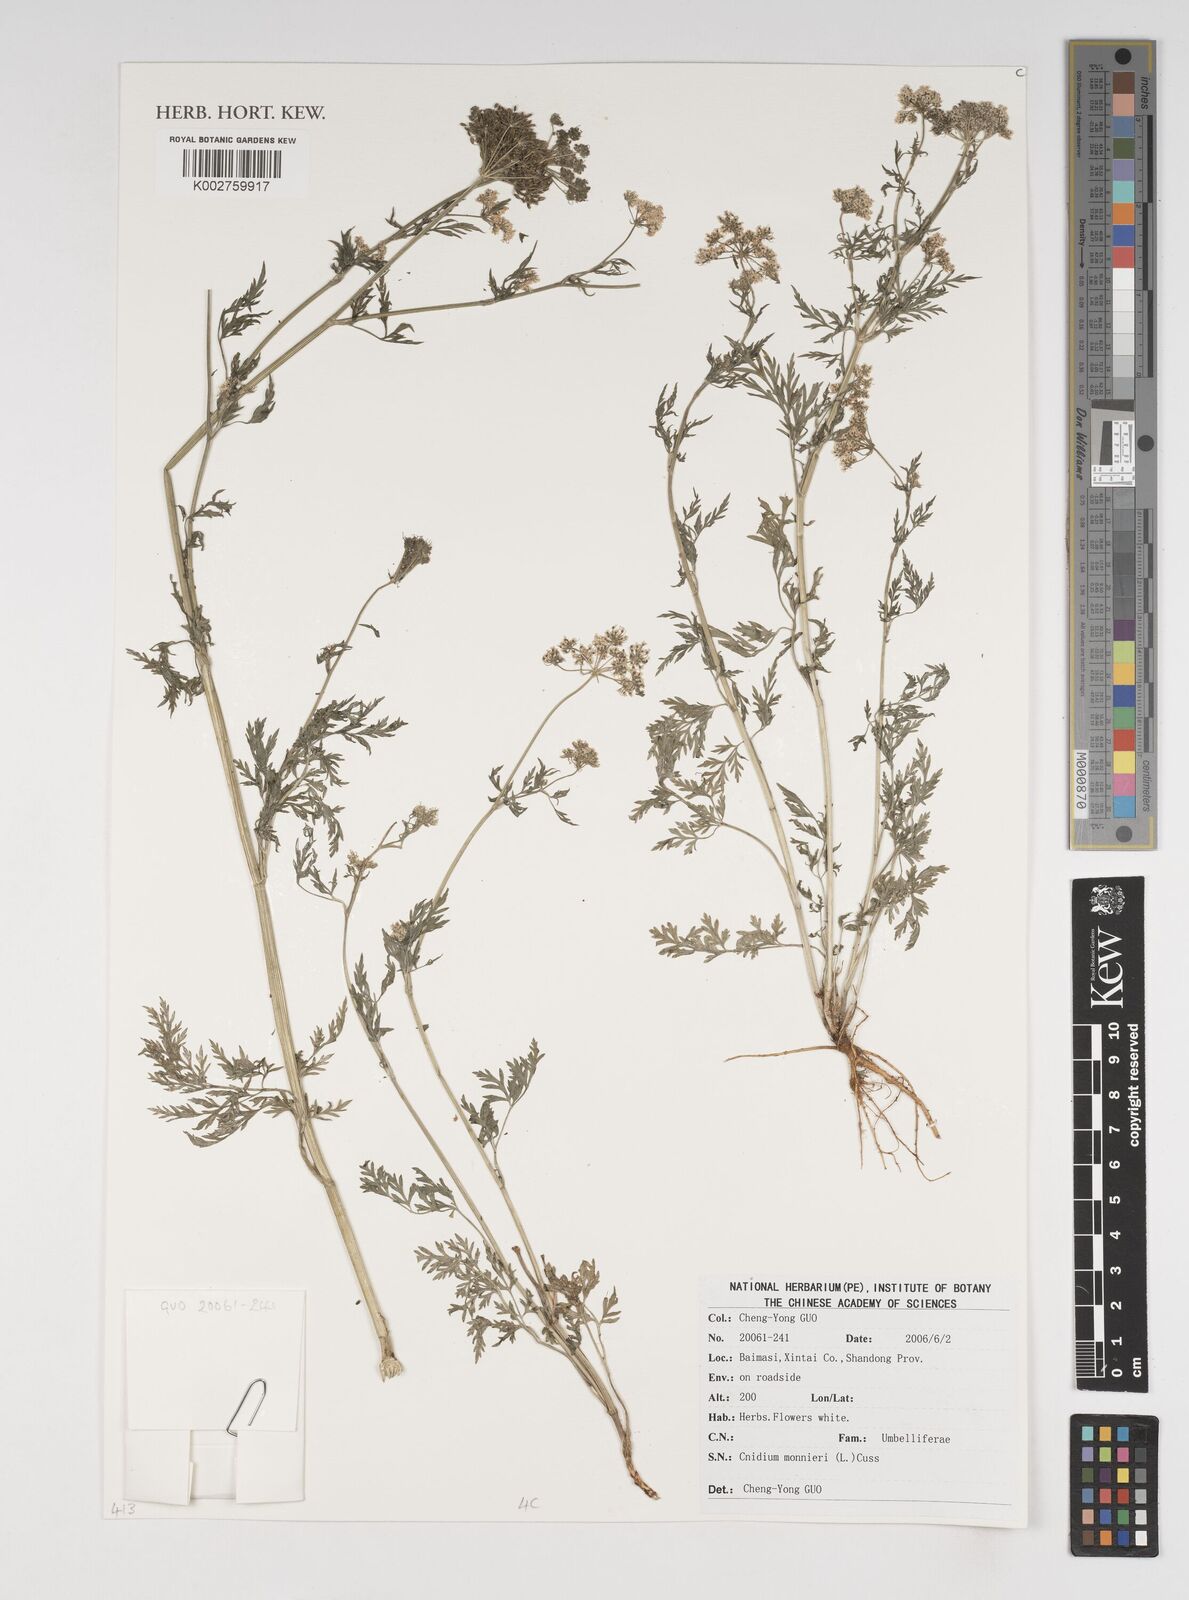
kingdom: Plantae
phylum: Tracheophyta
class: Magnoliopsida
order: Apiales
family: Apiaceae
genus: Cnidium
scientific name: Cnidium monnieri
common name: Monnier's snowparsley
